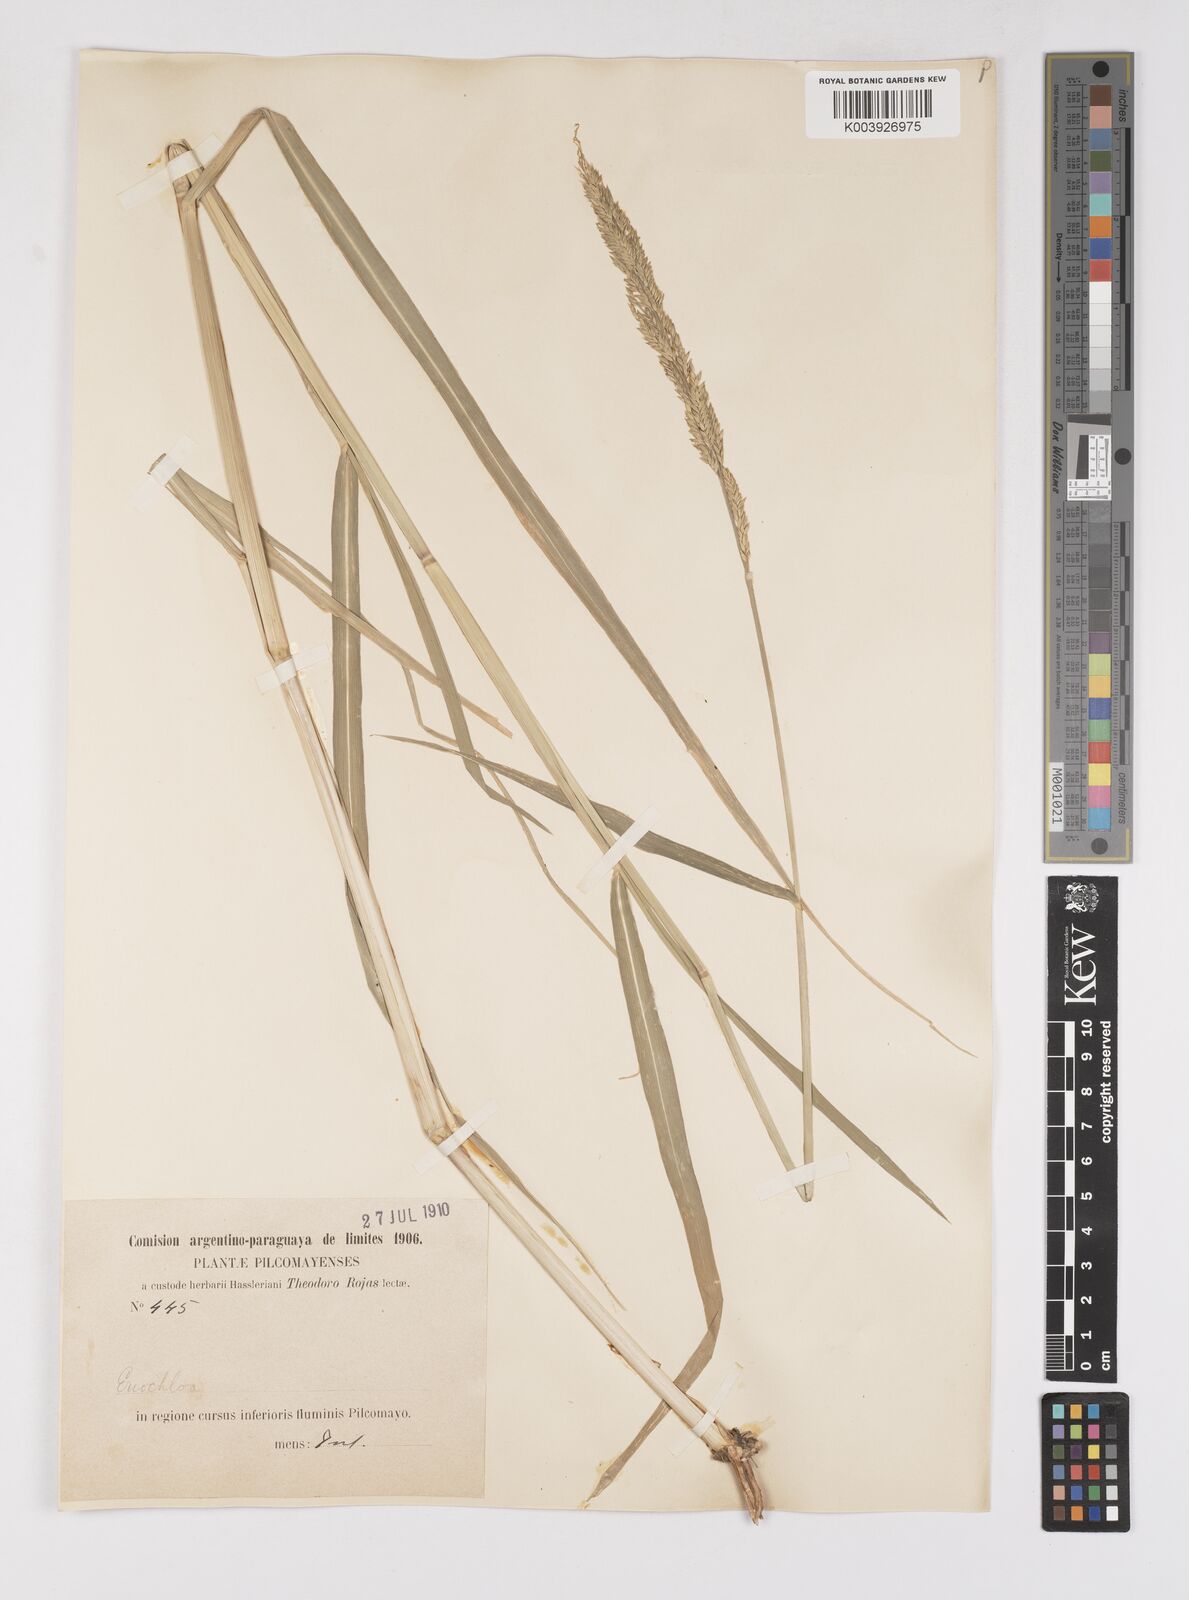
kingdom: Plantae
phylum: Tracheophyta
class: Liliopsida
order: Poales
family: Poaceae
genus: Eriochloa
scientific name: Eriochloa punctata
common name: Louisiana cupgrass
